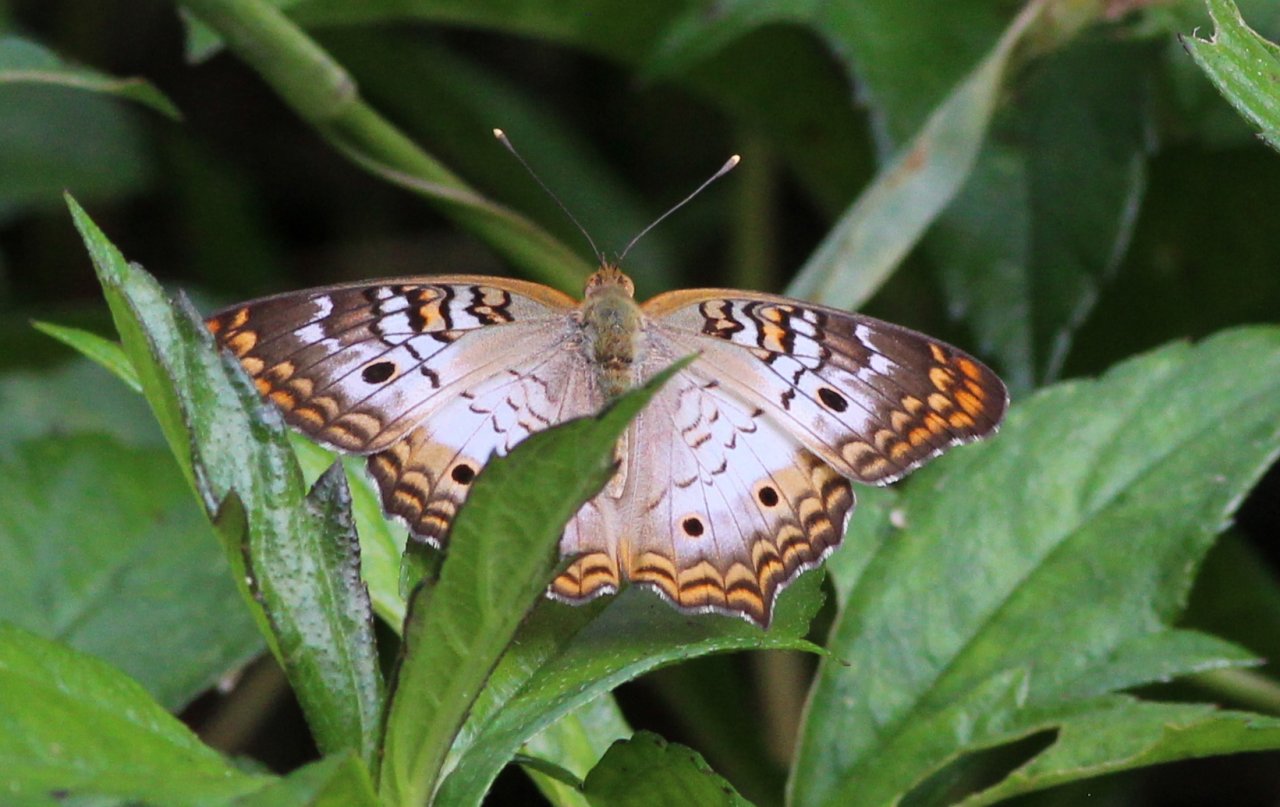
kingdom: Animalia
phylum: Arthropoda
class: Insecta
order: Lepidoptera
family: Nymphalidae
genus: Anartia
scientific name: Anartia jatrophae
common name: White Peacock
